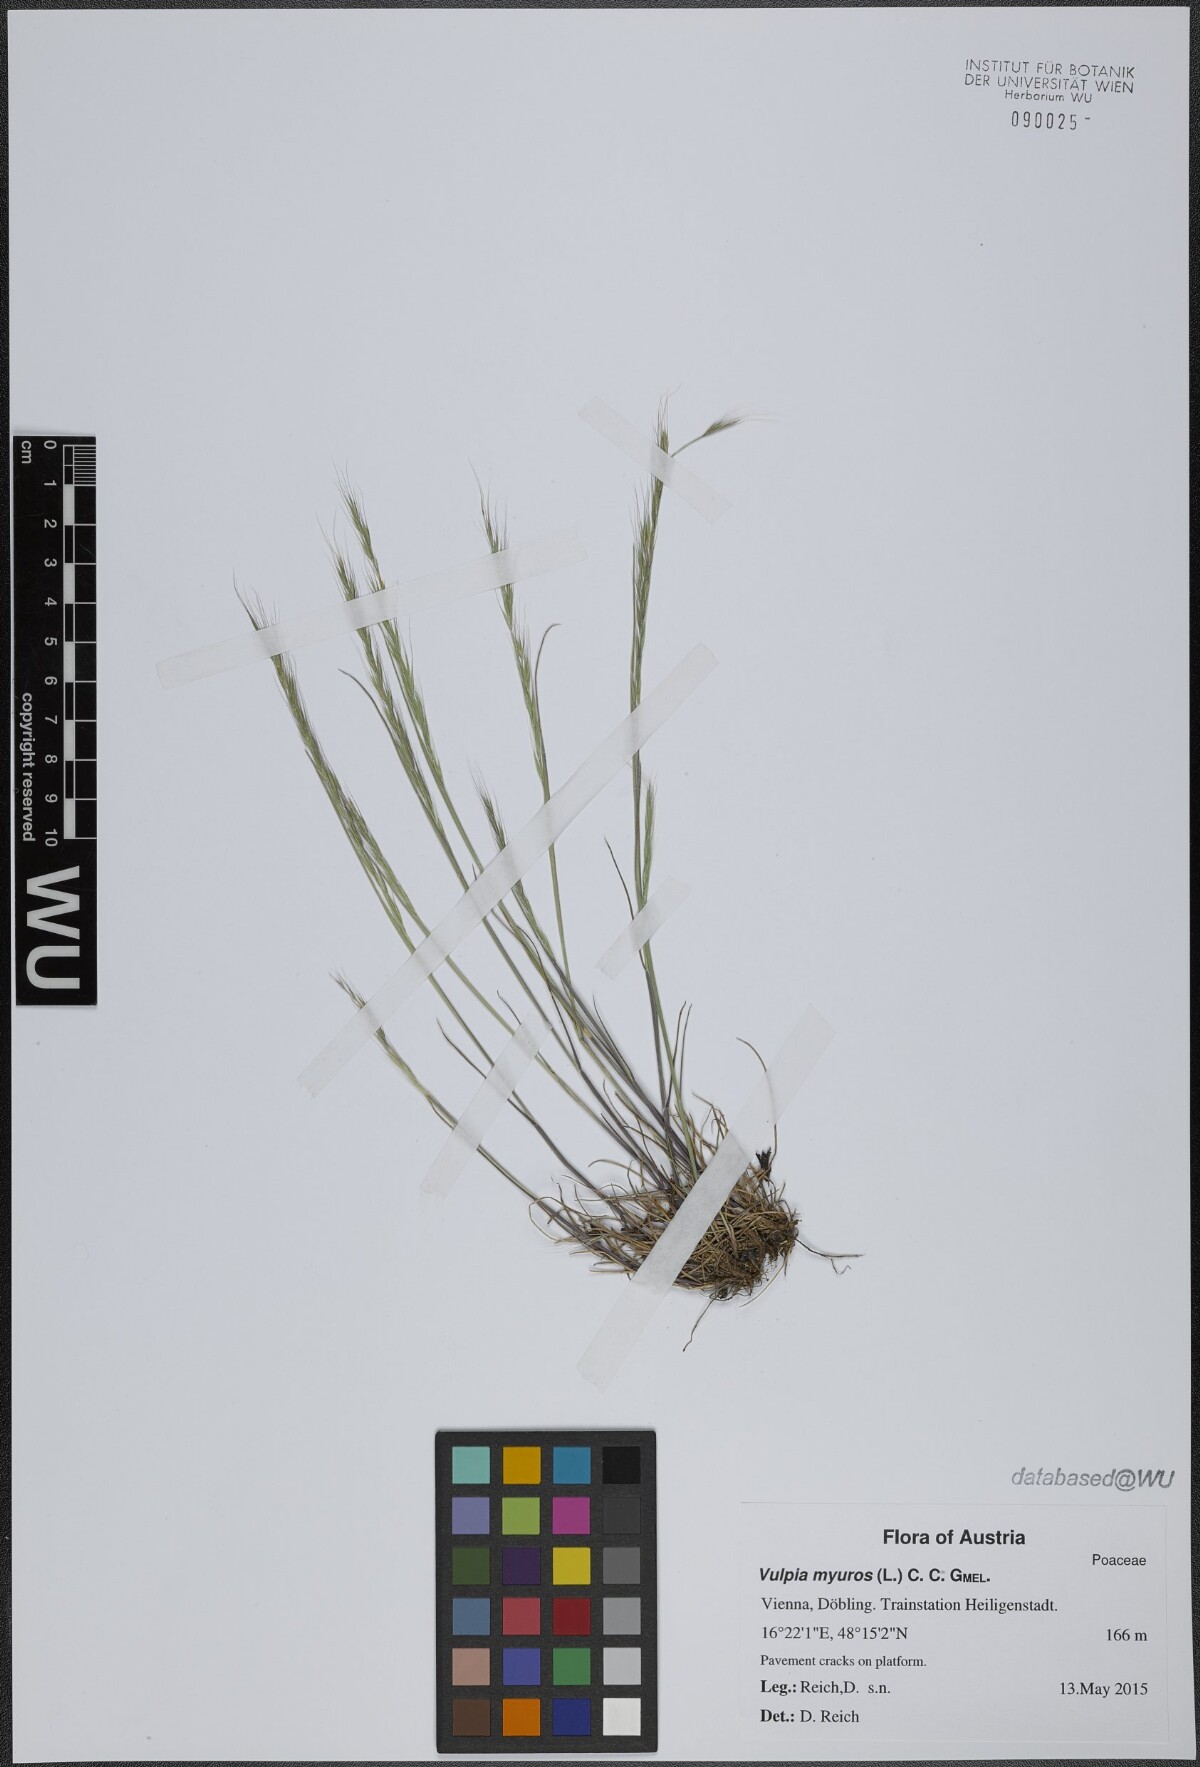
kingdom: Plantae
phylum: Tracheophyta
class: Liliopsida
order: Poales
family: Poaceae
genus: Festuca
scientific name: Festuca myuros
